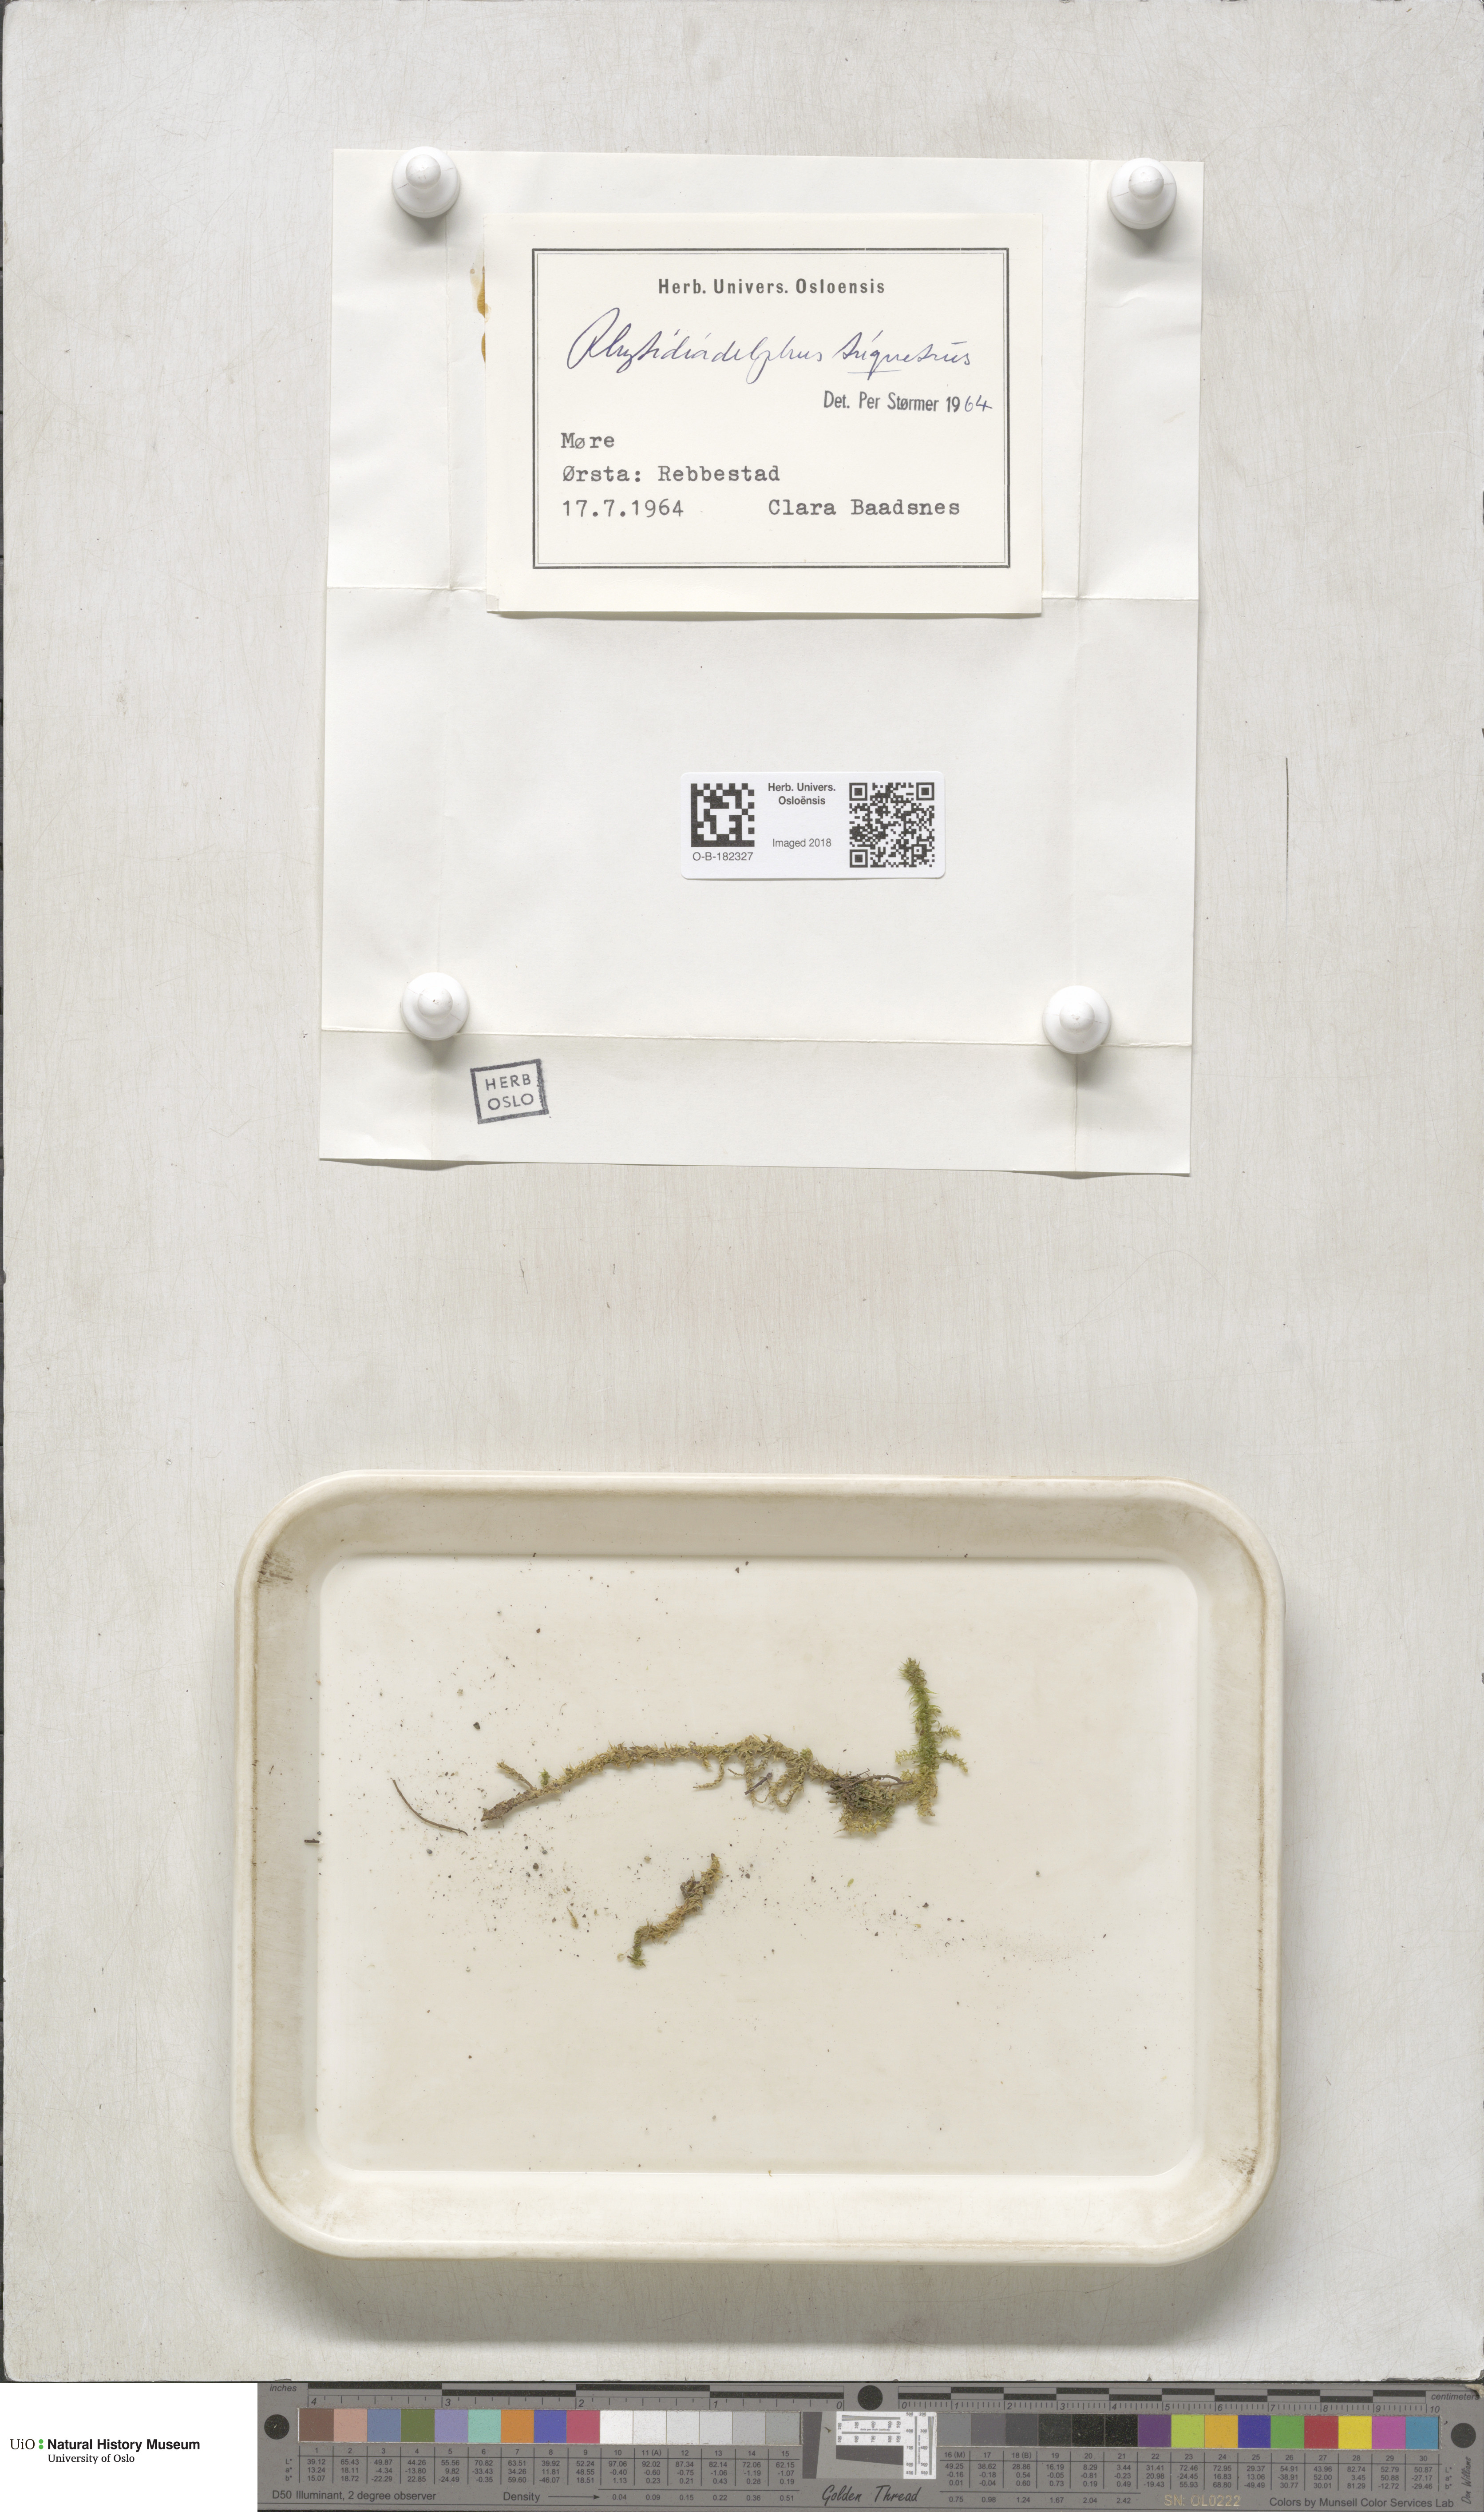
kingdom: Plantae
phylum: Bryophyta
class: Bryopsida
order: Hypnales
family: Hylocomiaceae
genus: Hylocomiadelphus
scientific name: Hylocomiadelphus triquetrus
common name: Rough goose neck moss
